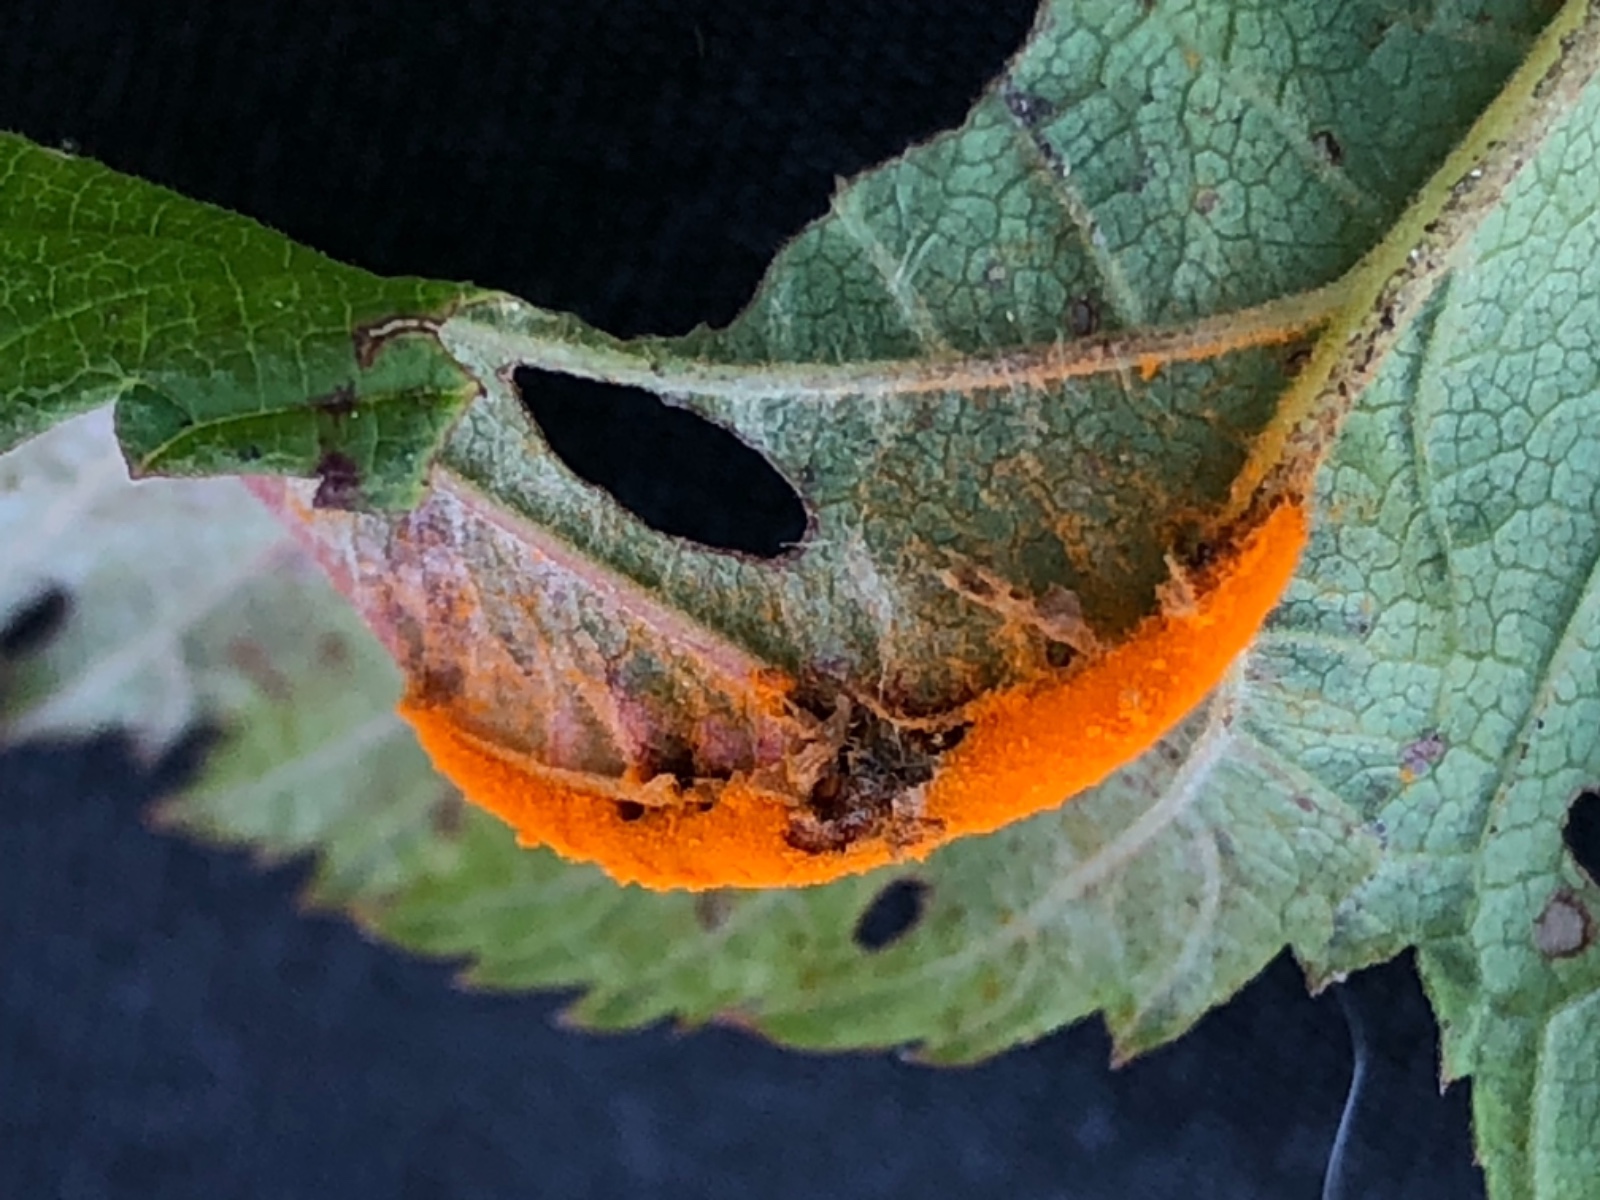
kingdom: Fungi
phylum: Basidiomycota
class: Pucciniomycetes
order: Pucciniales
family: Raveneliaceae
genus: Triphragmium
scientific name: Triphragmium ulmariae
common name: almindelig mjødurtrust
